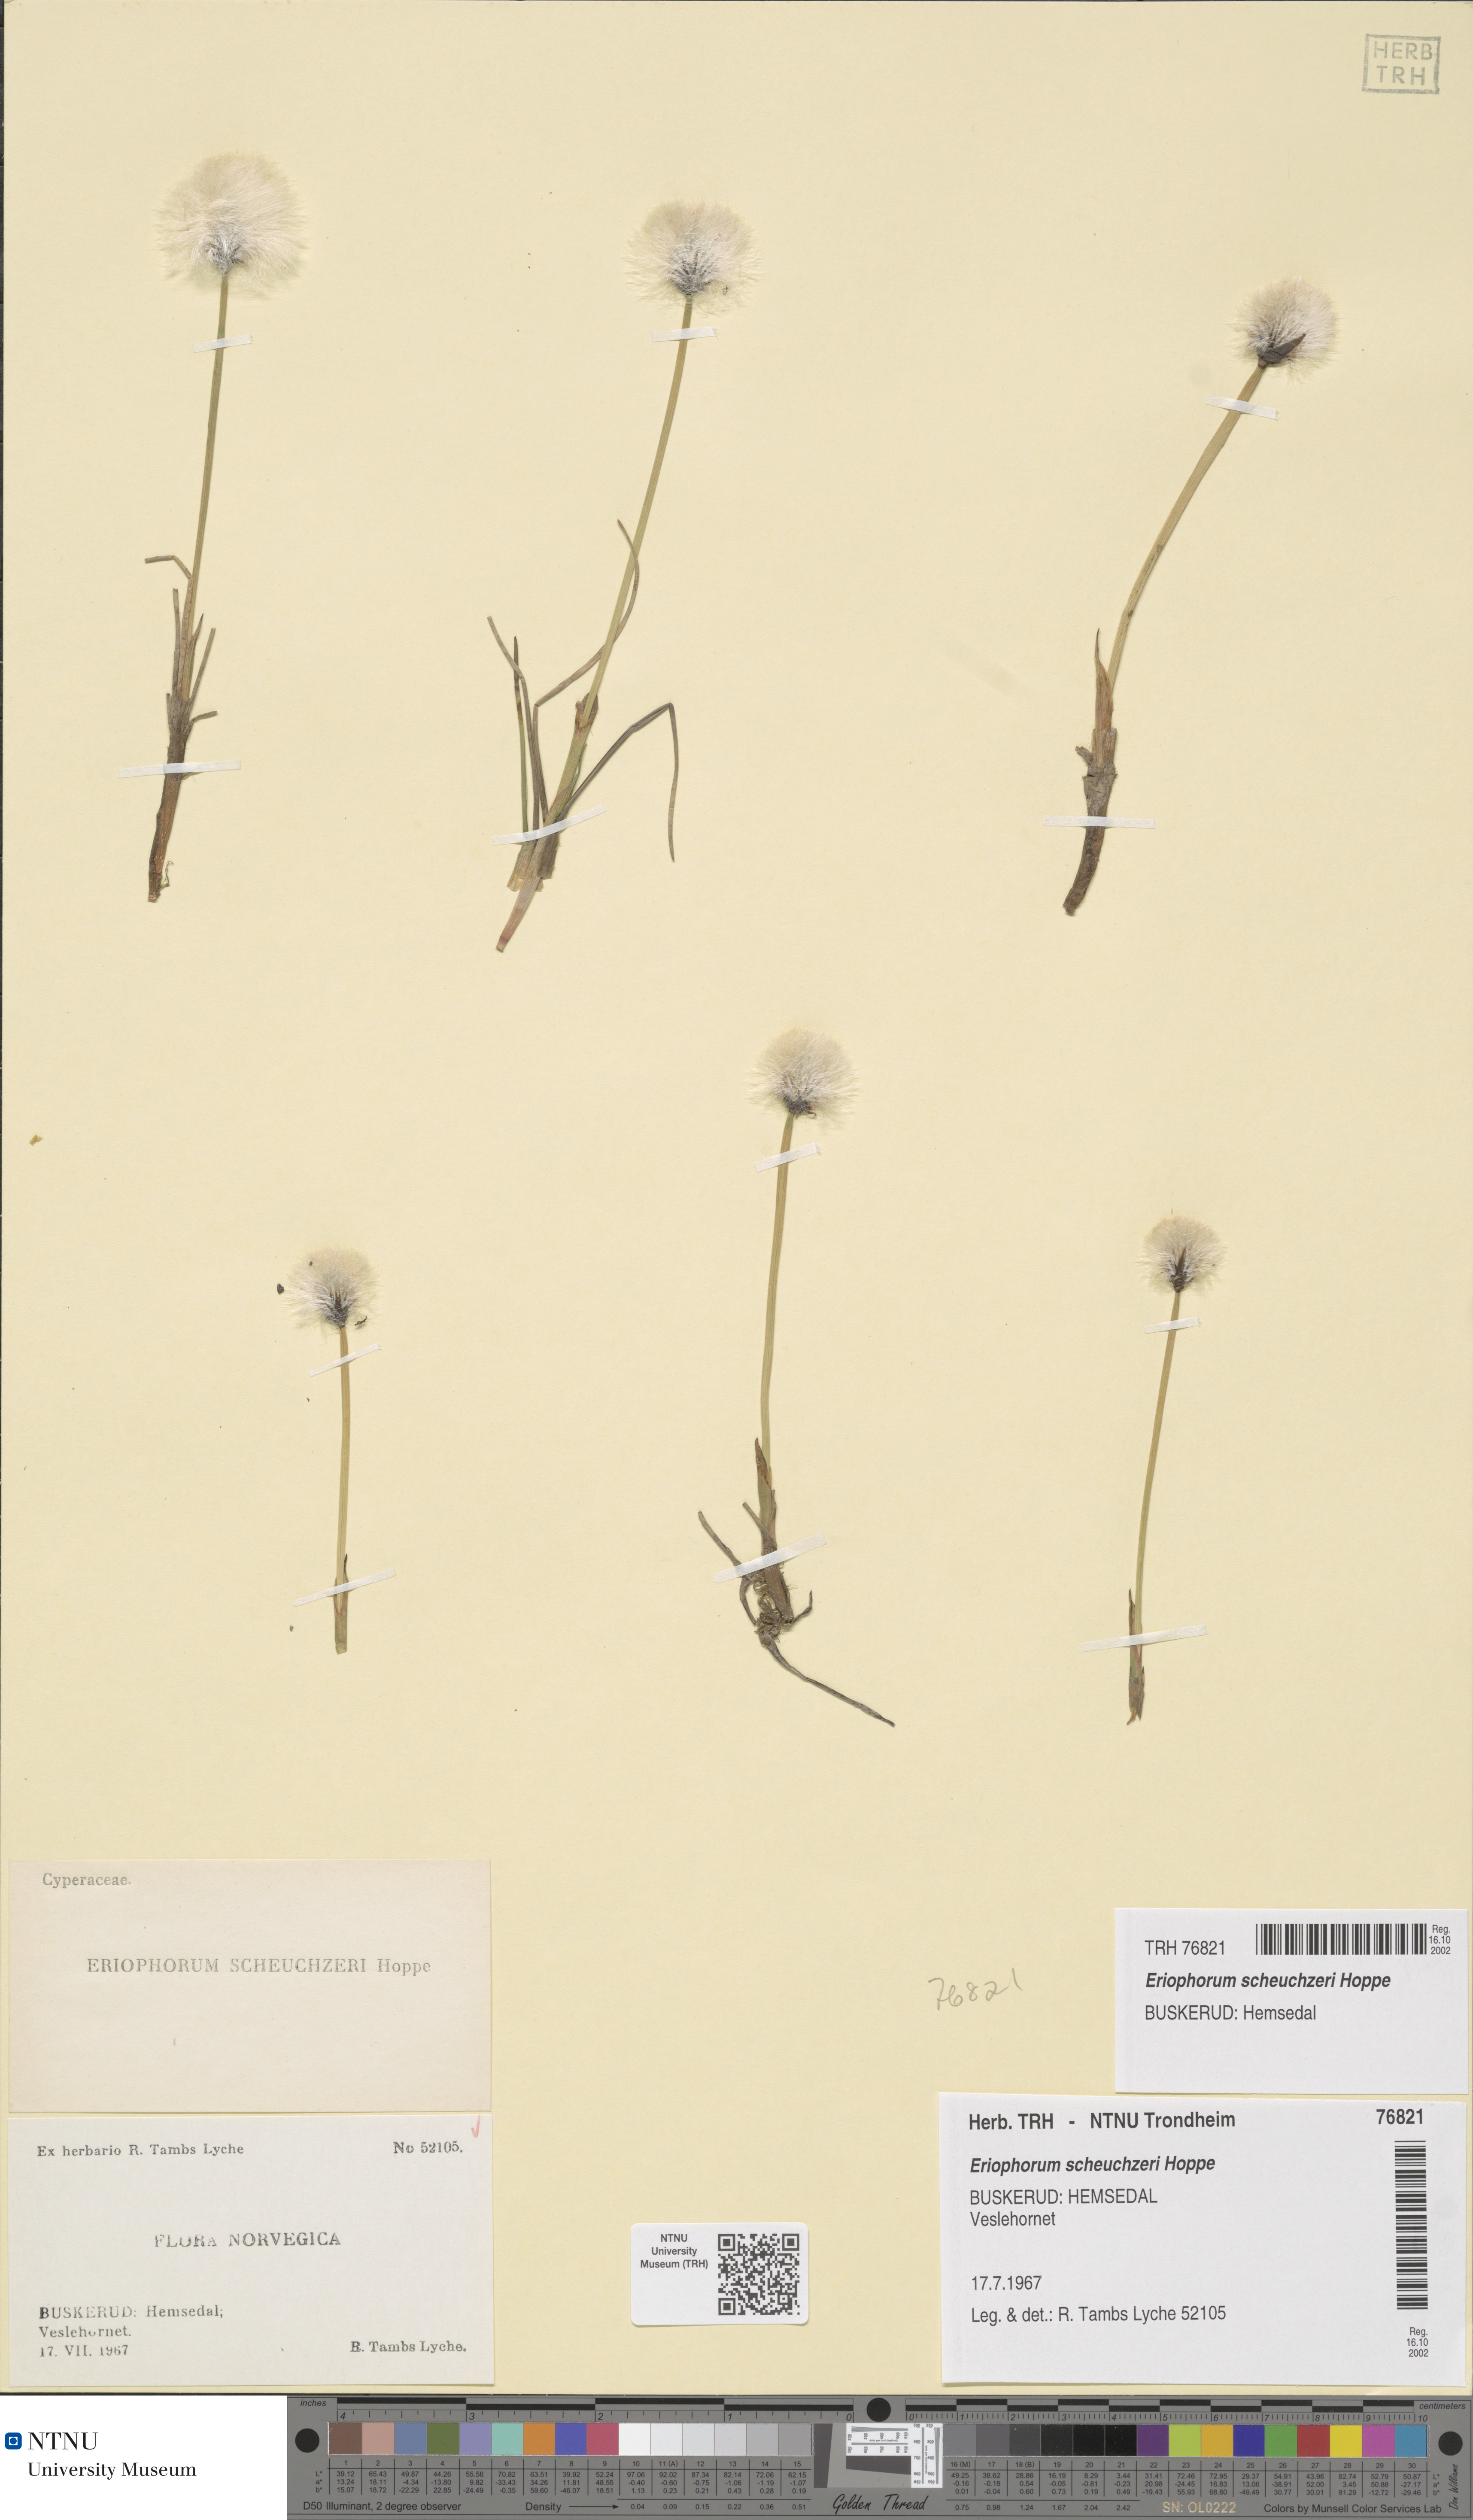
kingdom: Plantae
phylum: Tracheophyta
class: Liliopsida
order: Poales
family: Cyperaceae
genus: Eriophorum
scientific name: Eriophorum scheuchzeri
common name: Scheuchzer's cottongrass
